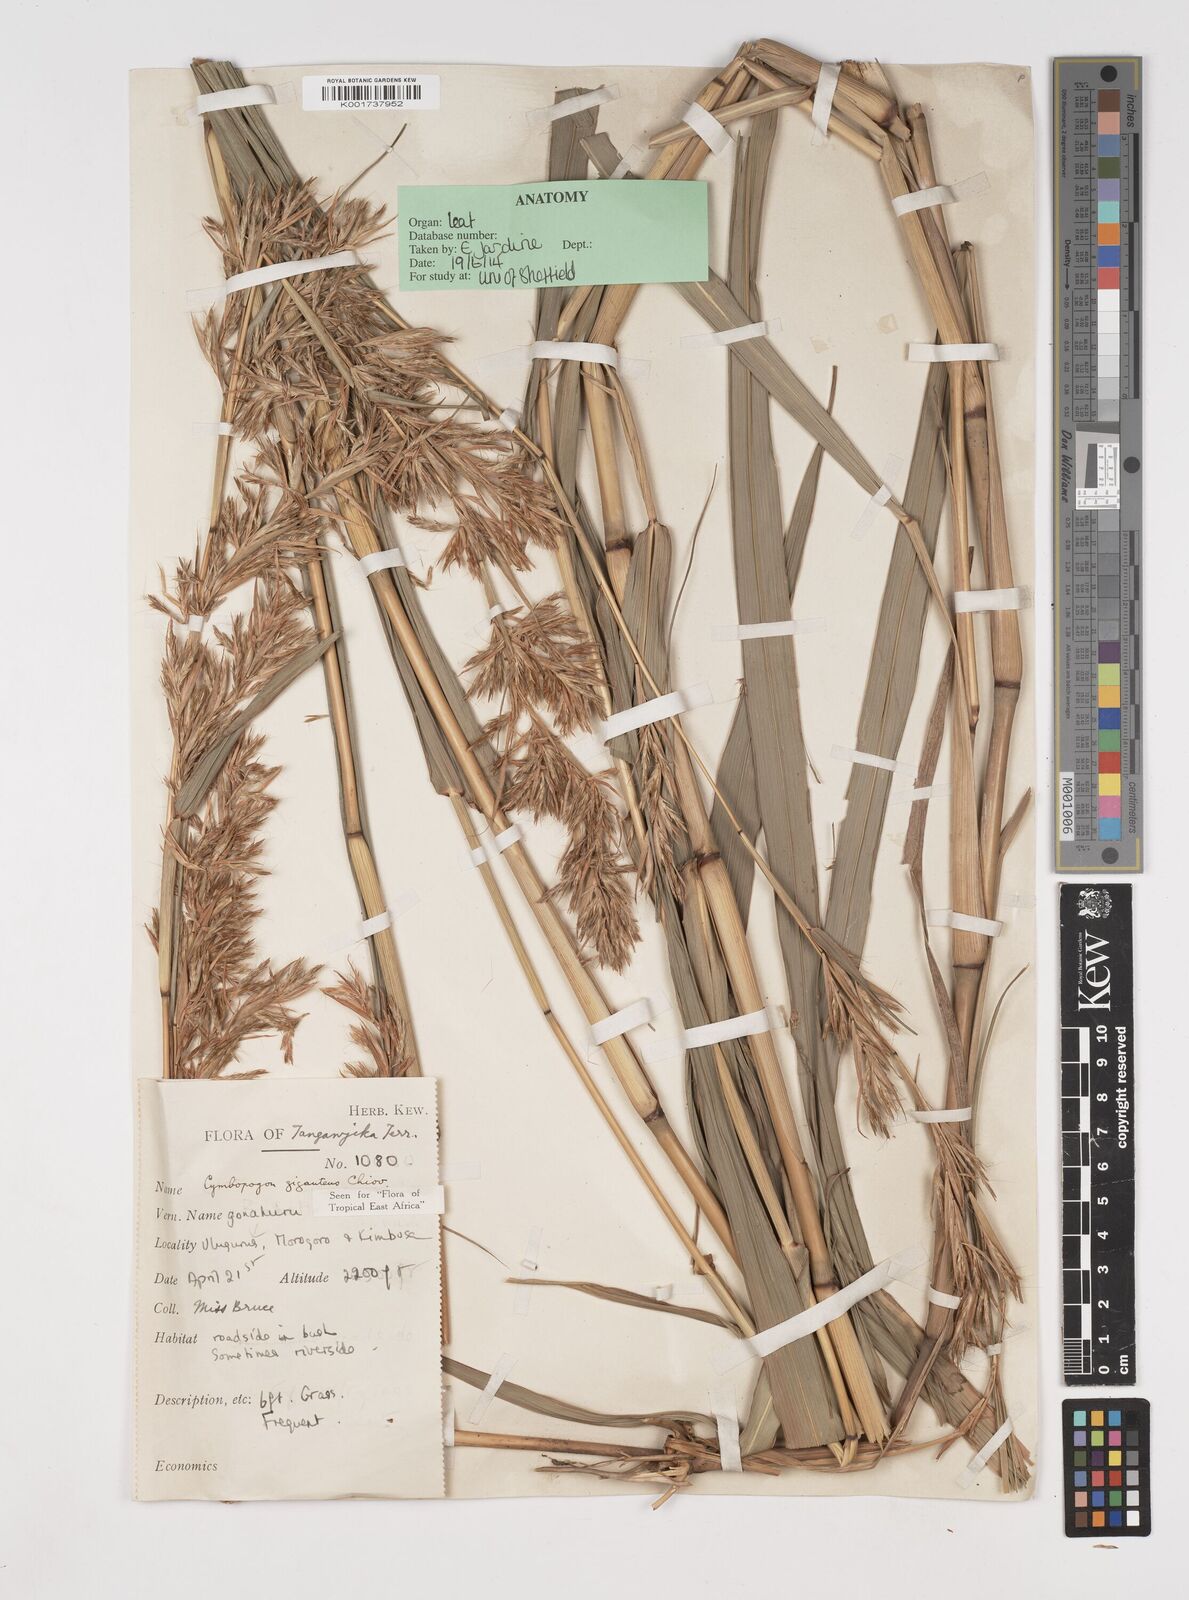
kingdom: Plantae
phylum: Tracheophyta
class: Liliopsida
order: Poales
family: Poaceae
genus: Cymbopogon
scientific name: Cymbopogon giganteus
